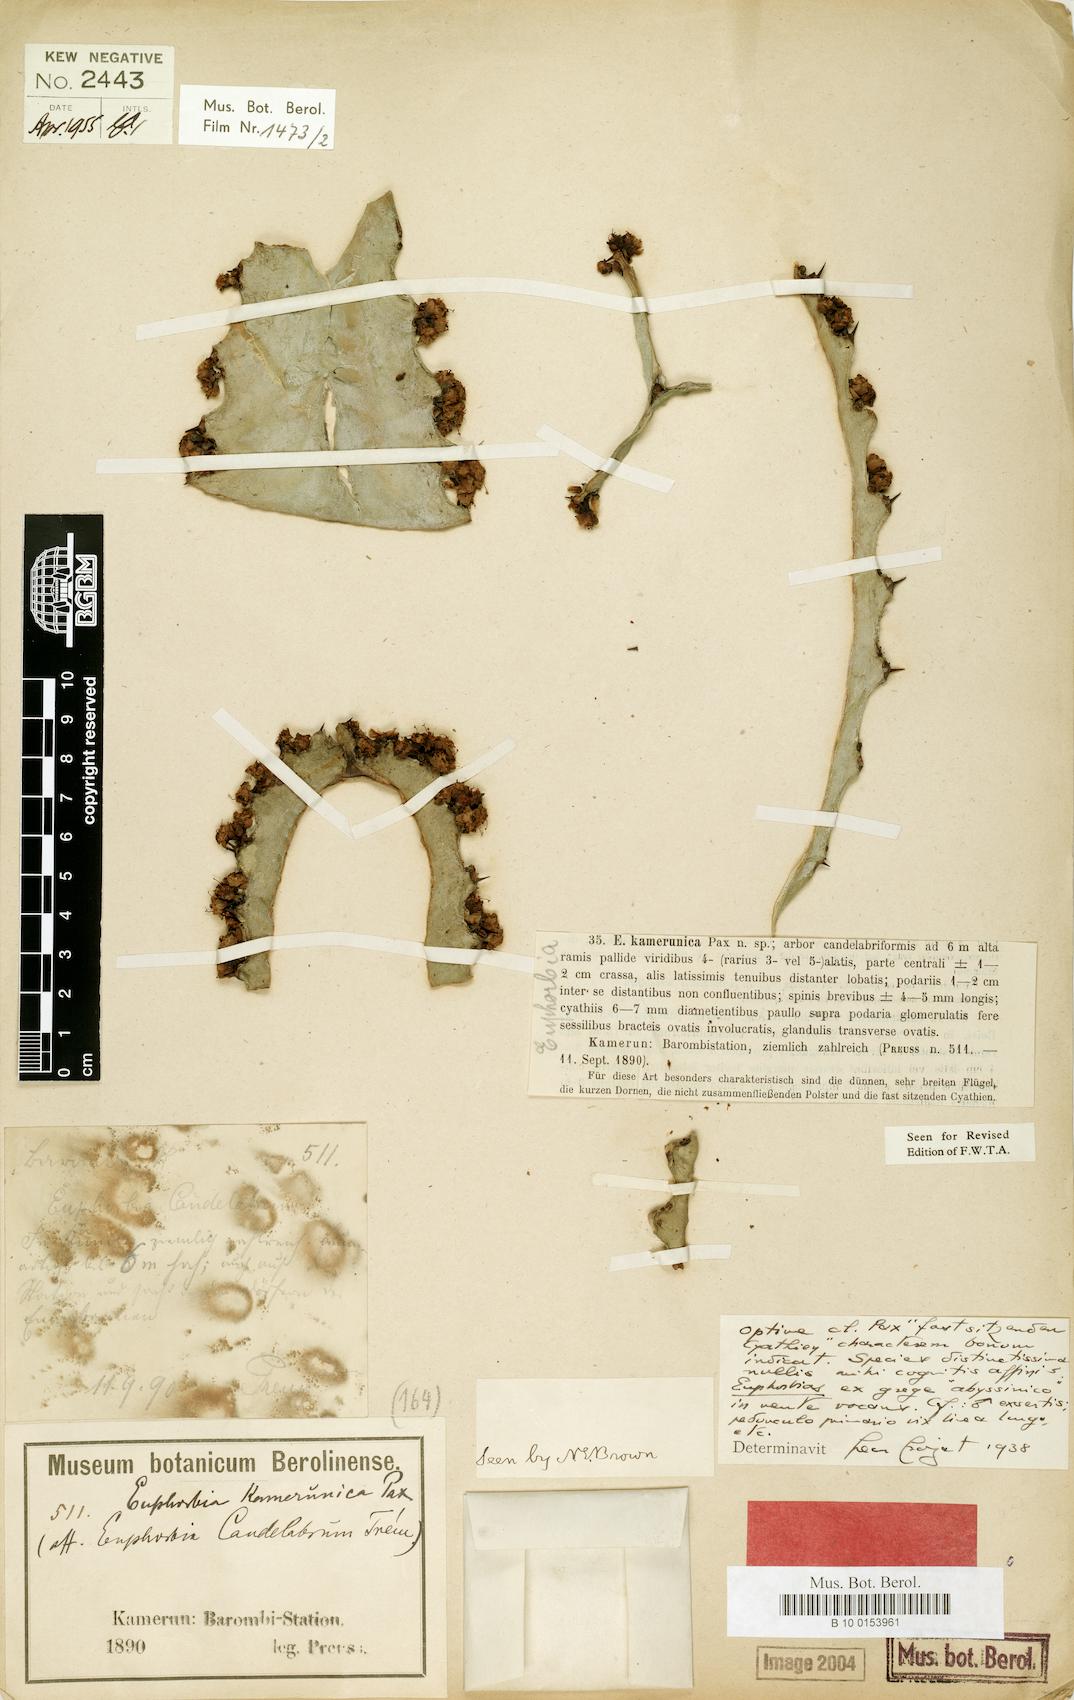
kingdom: Plantae
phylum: Tracheophyta
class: Magnoliopsida
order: Malpighiales
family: Euphorbiaceae
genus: Euphorbia
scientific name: Euphorbia kamerunica
